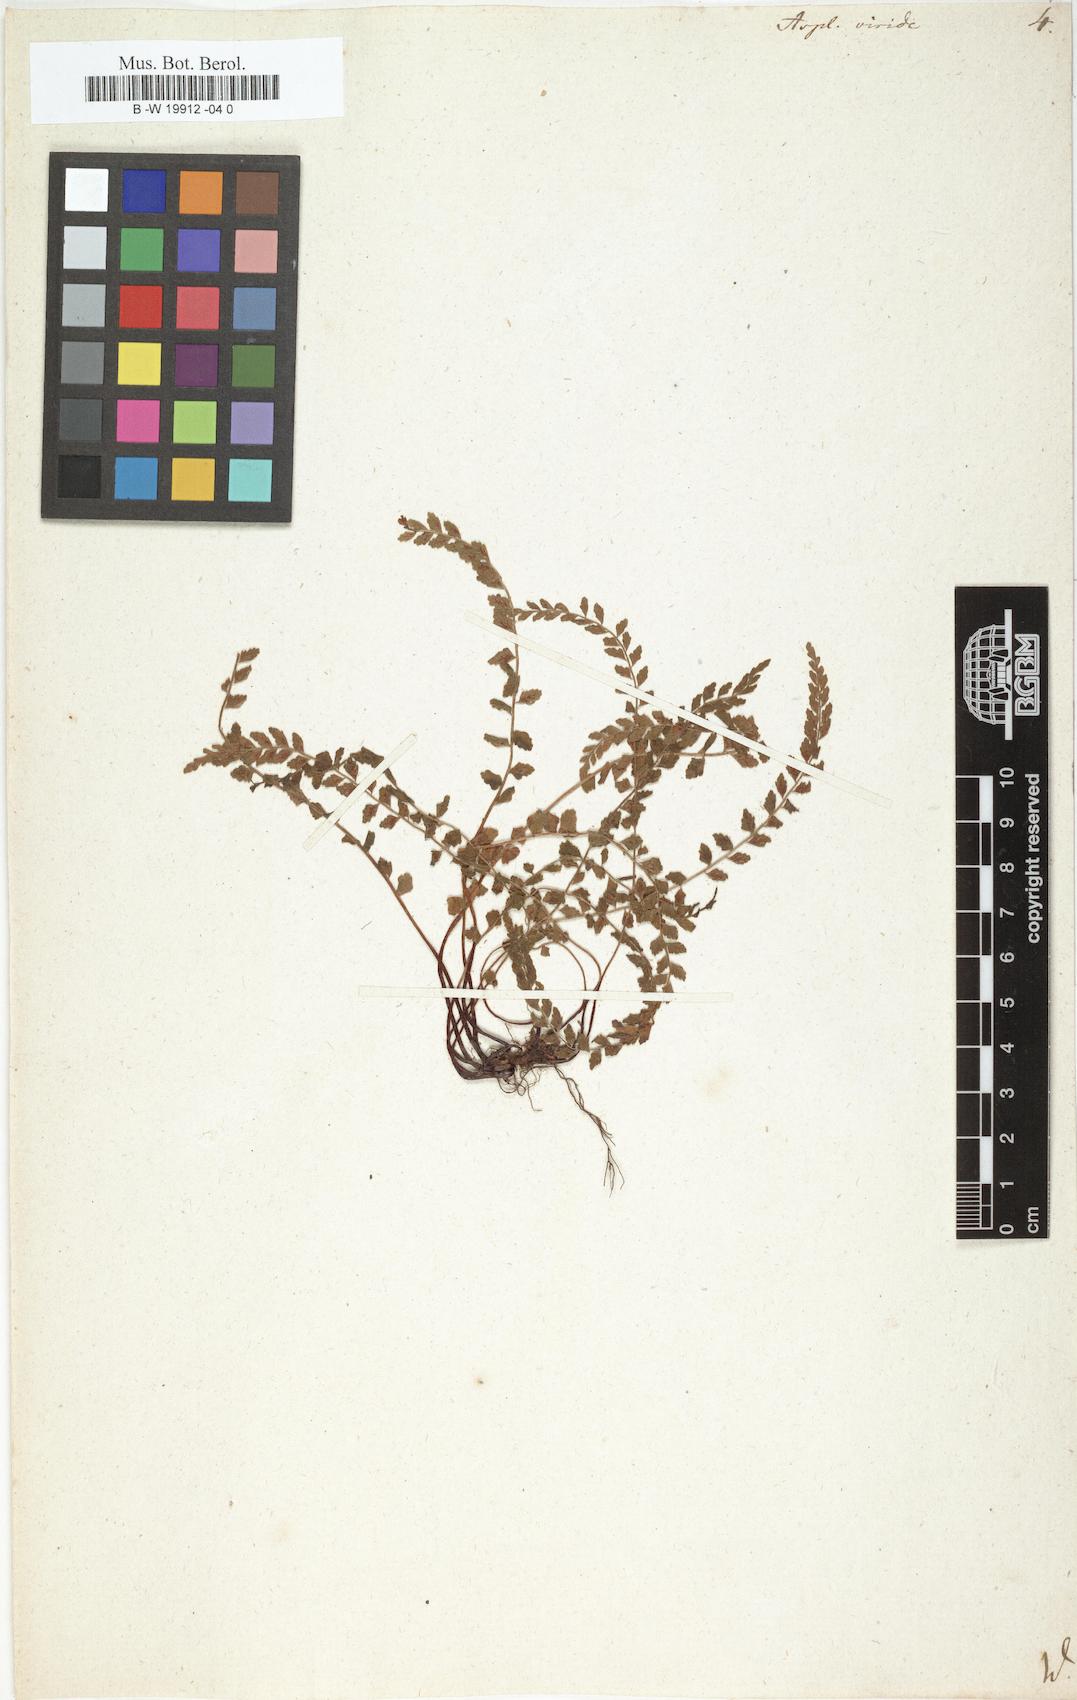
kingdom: Plantae
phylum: Tracheophyta
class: Polypodiopsida
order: Polypodiales
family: Aspleniaceae
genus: Asplenium
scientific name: Asplenium viride
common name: Green spleenwort
